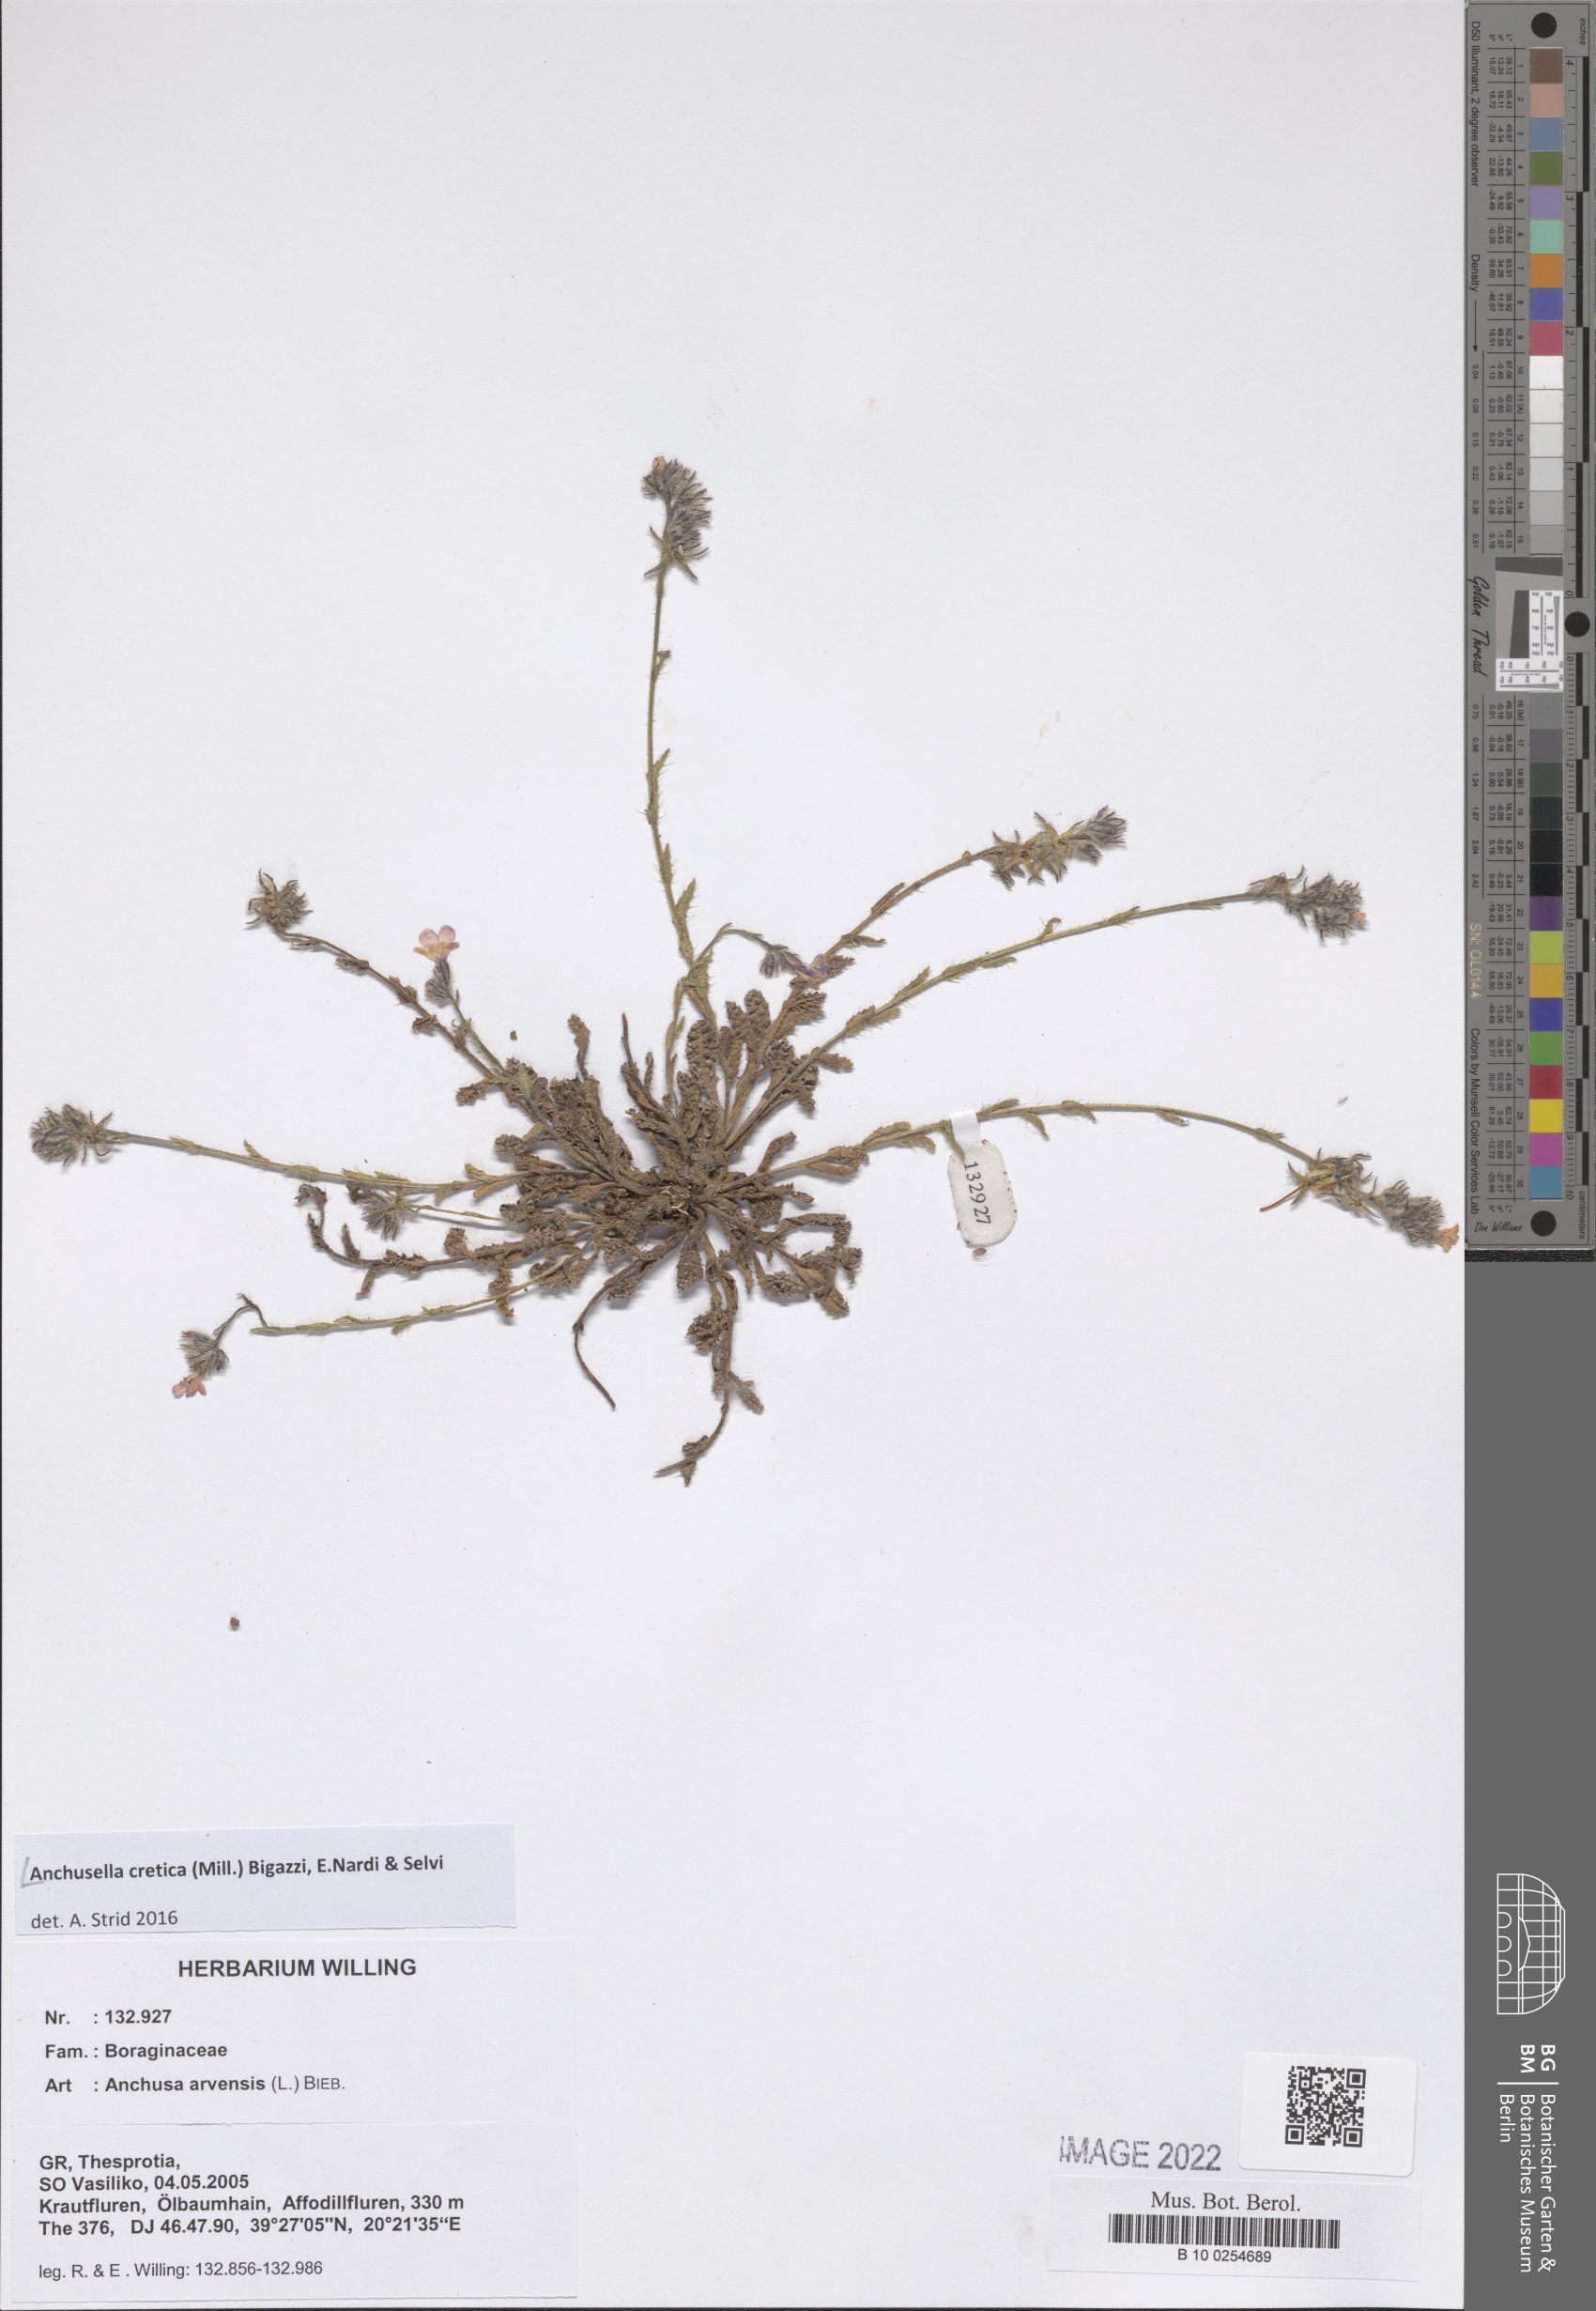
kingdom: Plantae
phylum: Tracheophyta
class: Magnoliopsida
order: Boraginales
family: Boraginaceae
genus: Anchusella
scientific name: Anchusella cretica
